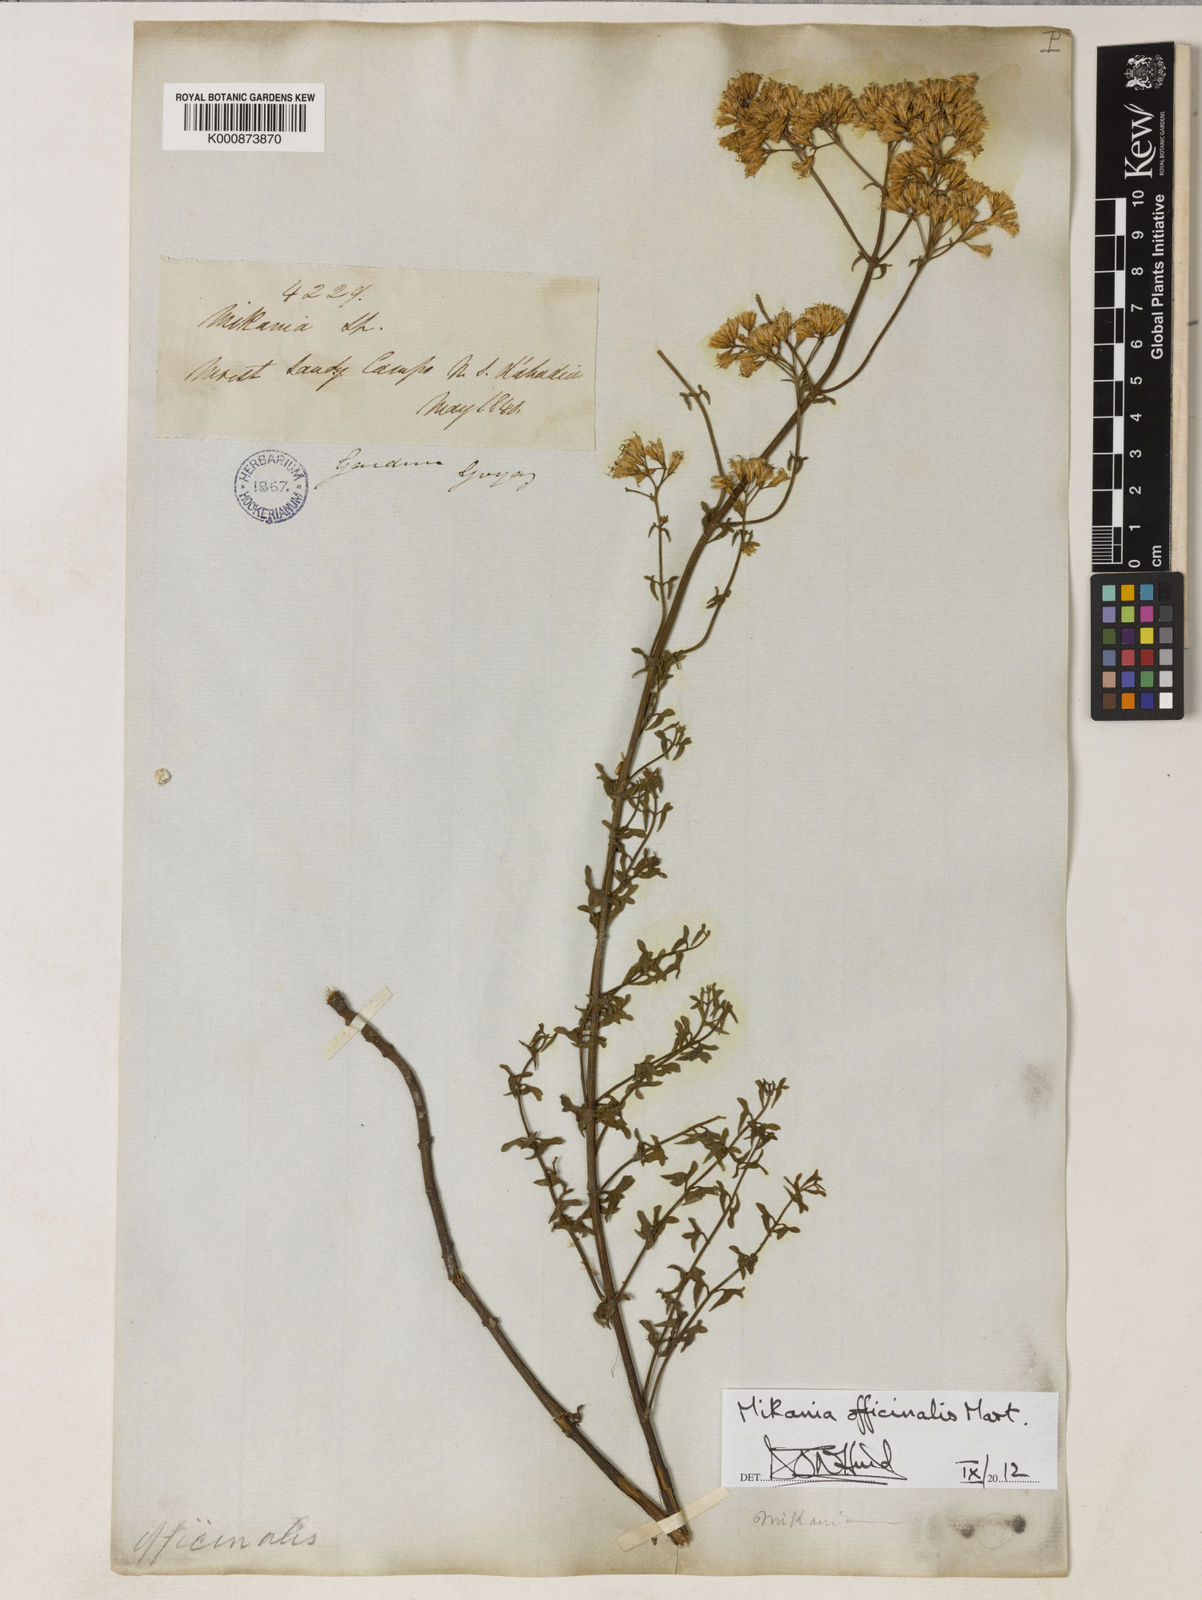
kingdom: Plantae
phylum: Tracheophyta
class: Magnoliopsida
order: Asterales
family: Asteraceae
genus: Mikania
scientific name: Mikania officinalis
